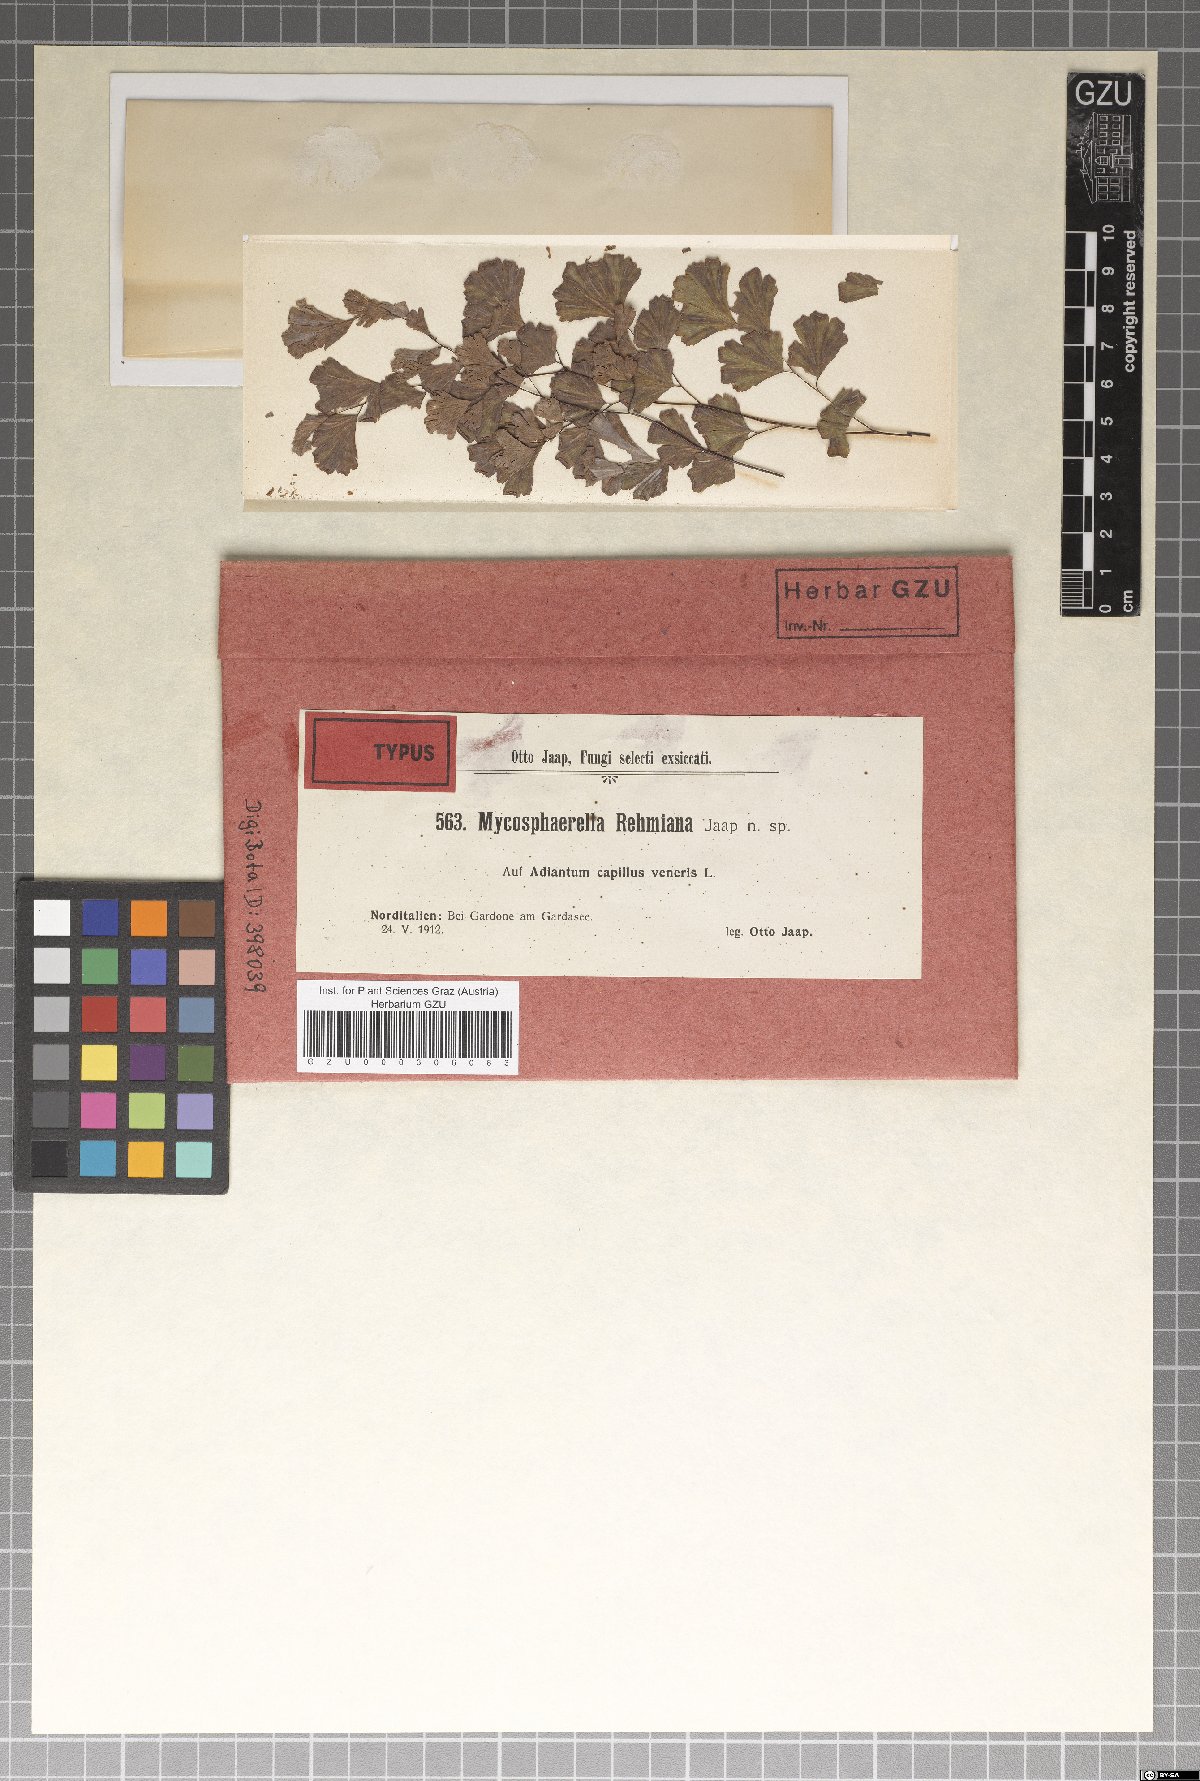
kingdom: Fungi
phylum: Ascomycota
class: Dothideomycetes
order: Mycosphaerellales
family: Mycosphaerellaceae
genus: Mycosphaerella
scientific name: Mycosphaerella rehmiana
